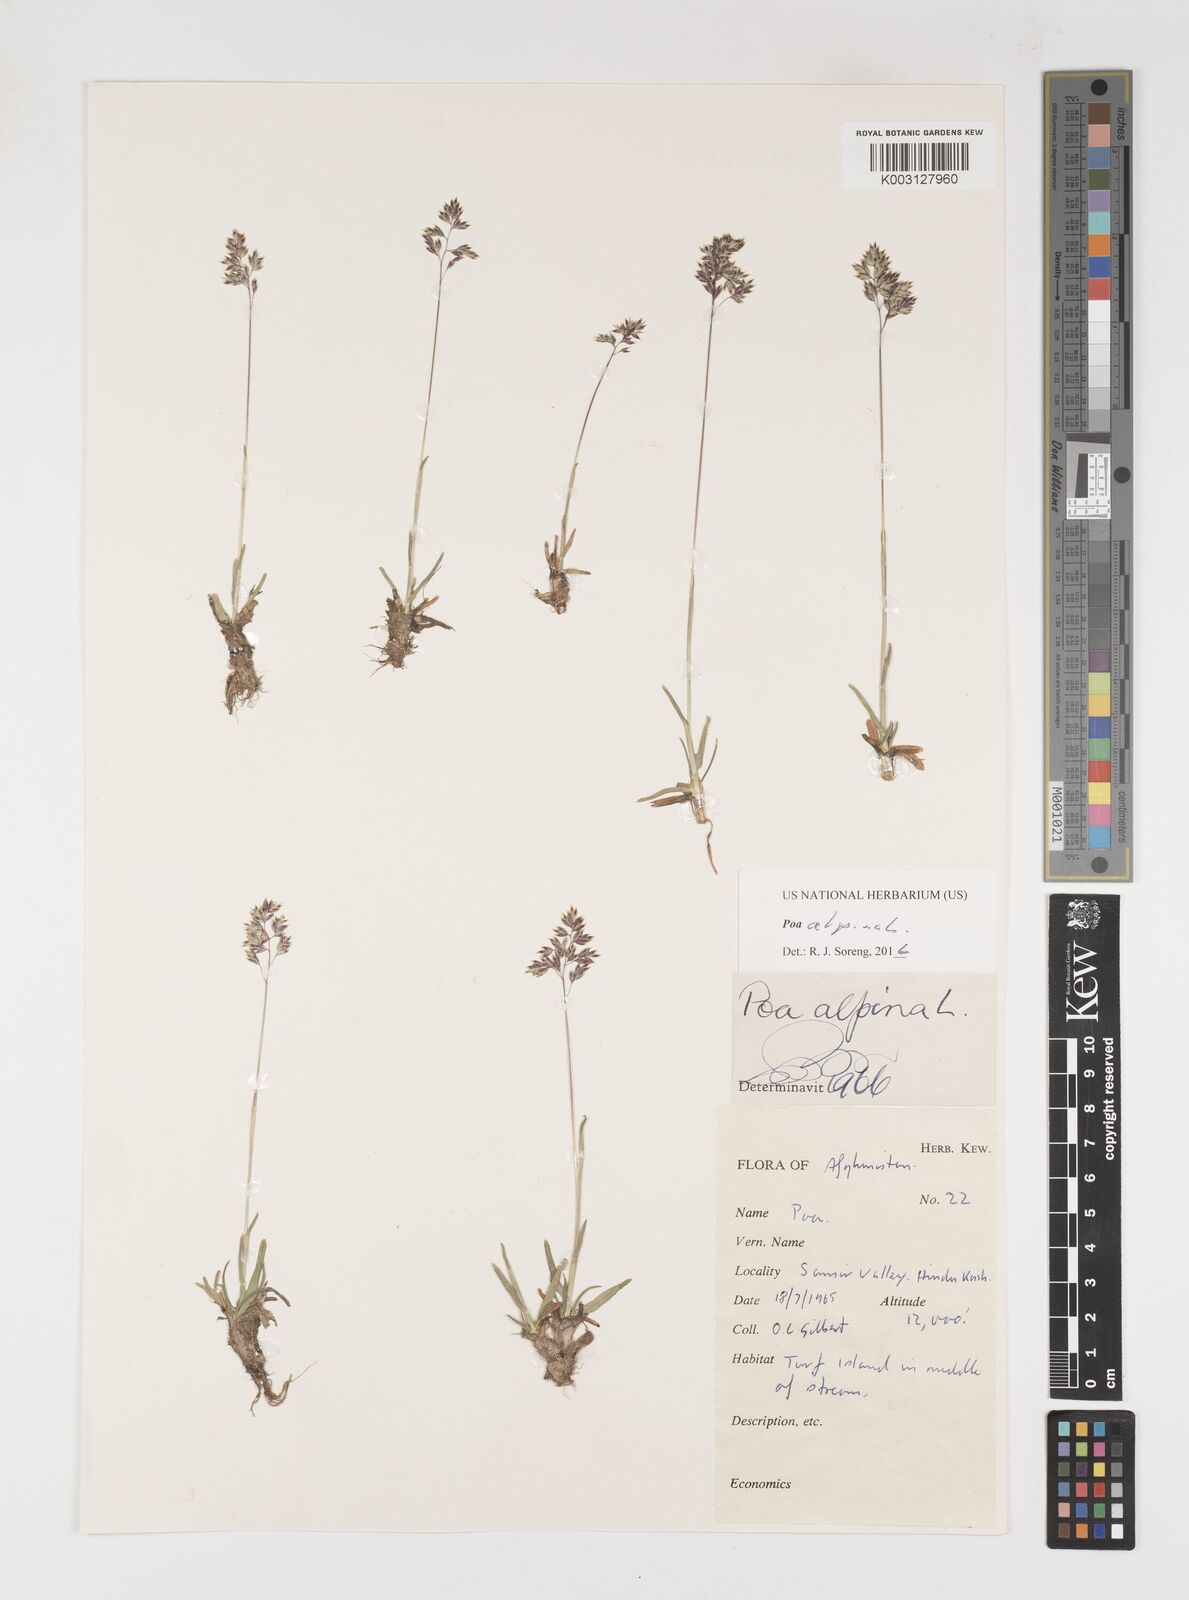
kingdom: Plantae
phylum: Tracheophyta
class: Liliopsida
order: Poales
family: Poaceae
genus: Poa
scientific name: Poa alpina
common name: Alpine bluegrass
